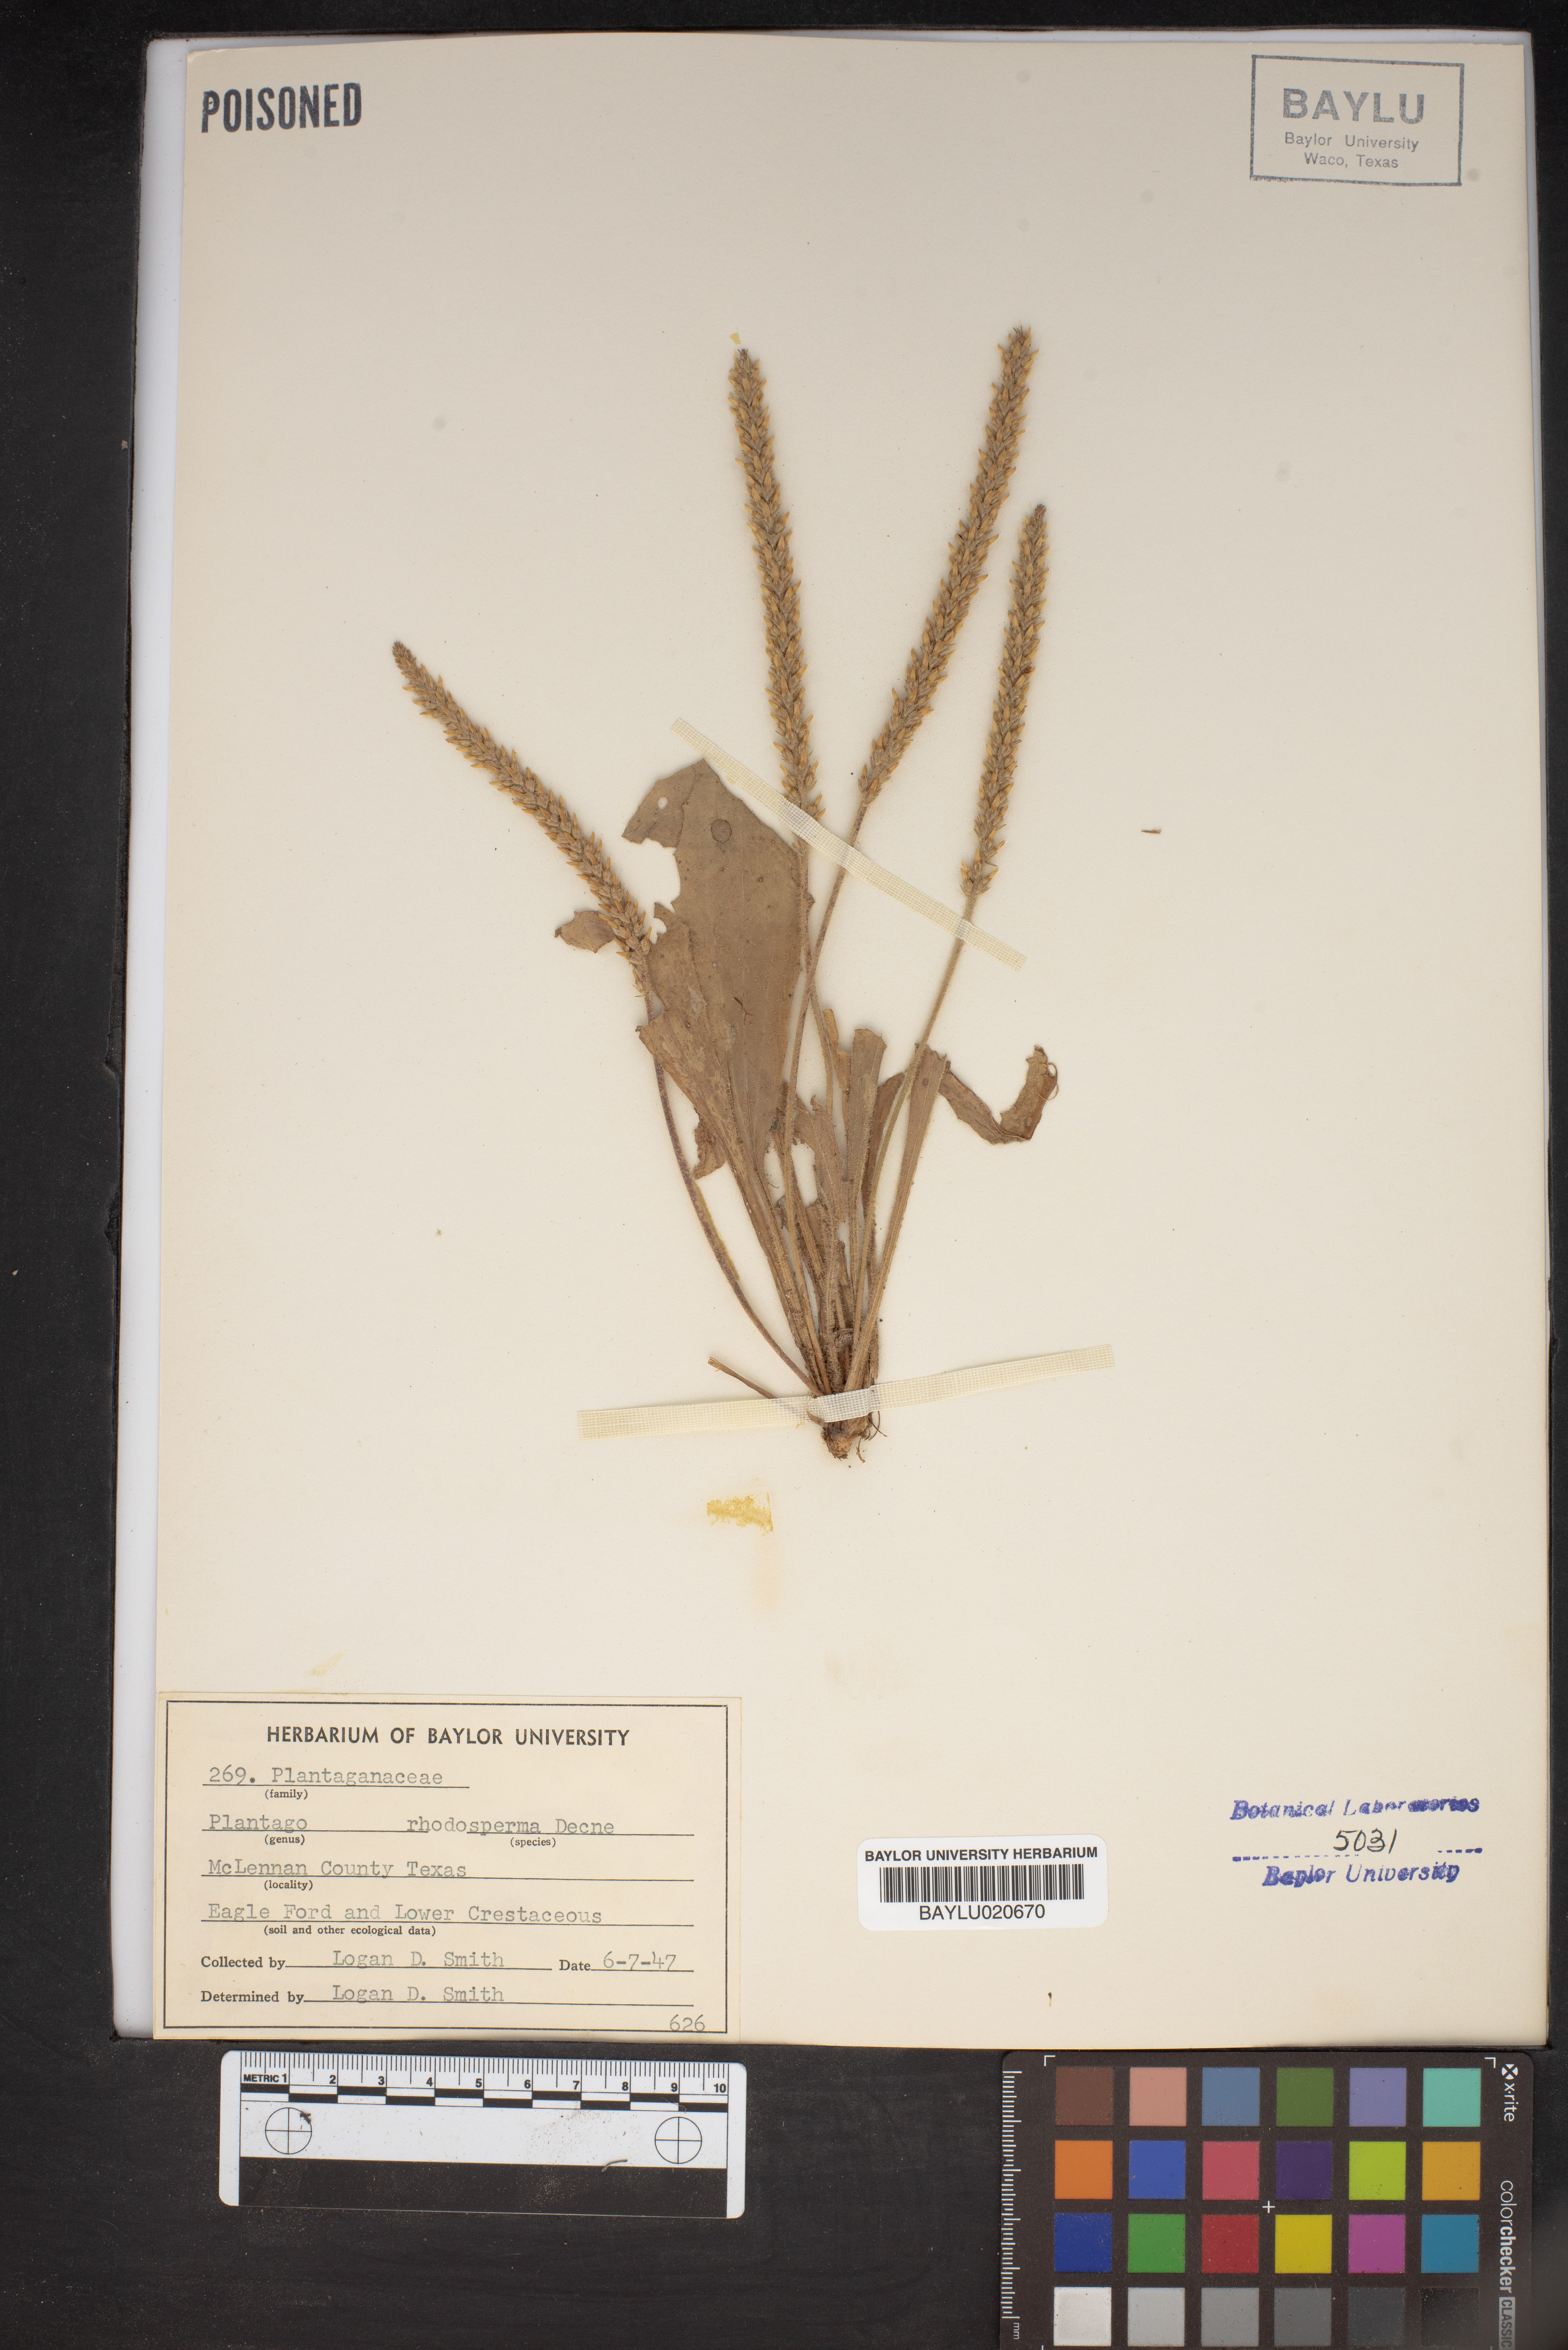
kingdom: Plantae
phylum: Tracheophyta
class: Magnoliopsida
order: Lamiales
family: Plantaginaceae
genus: Plantago
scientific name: Plantago rhodosperma
